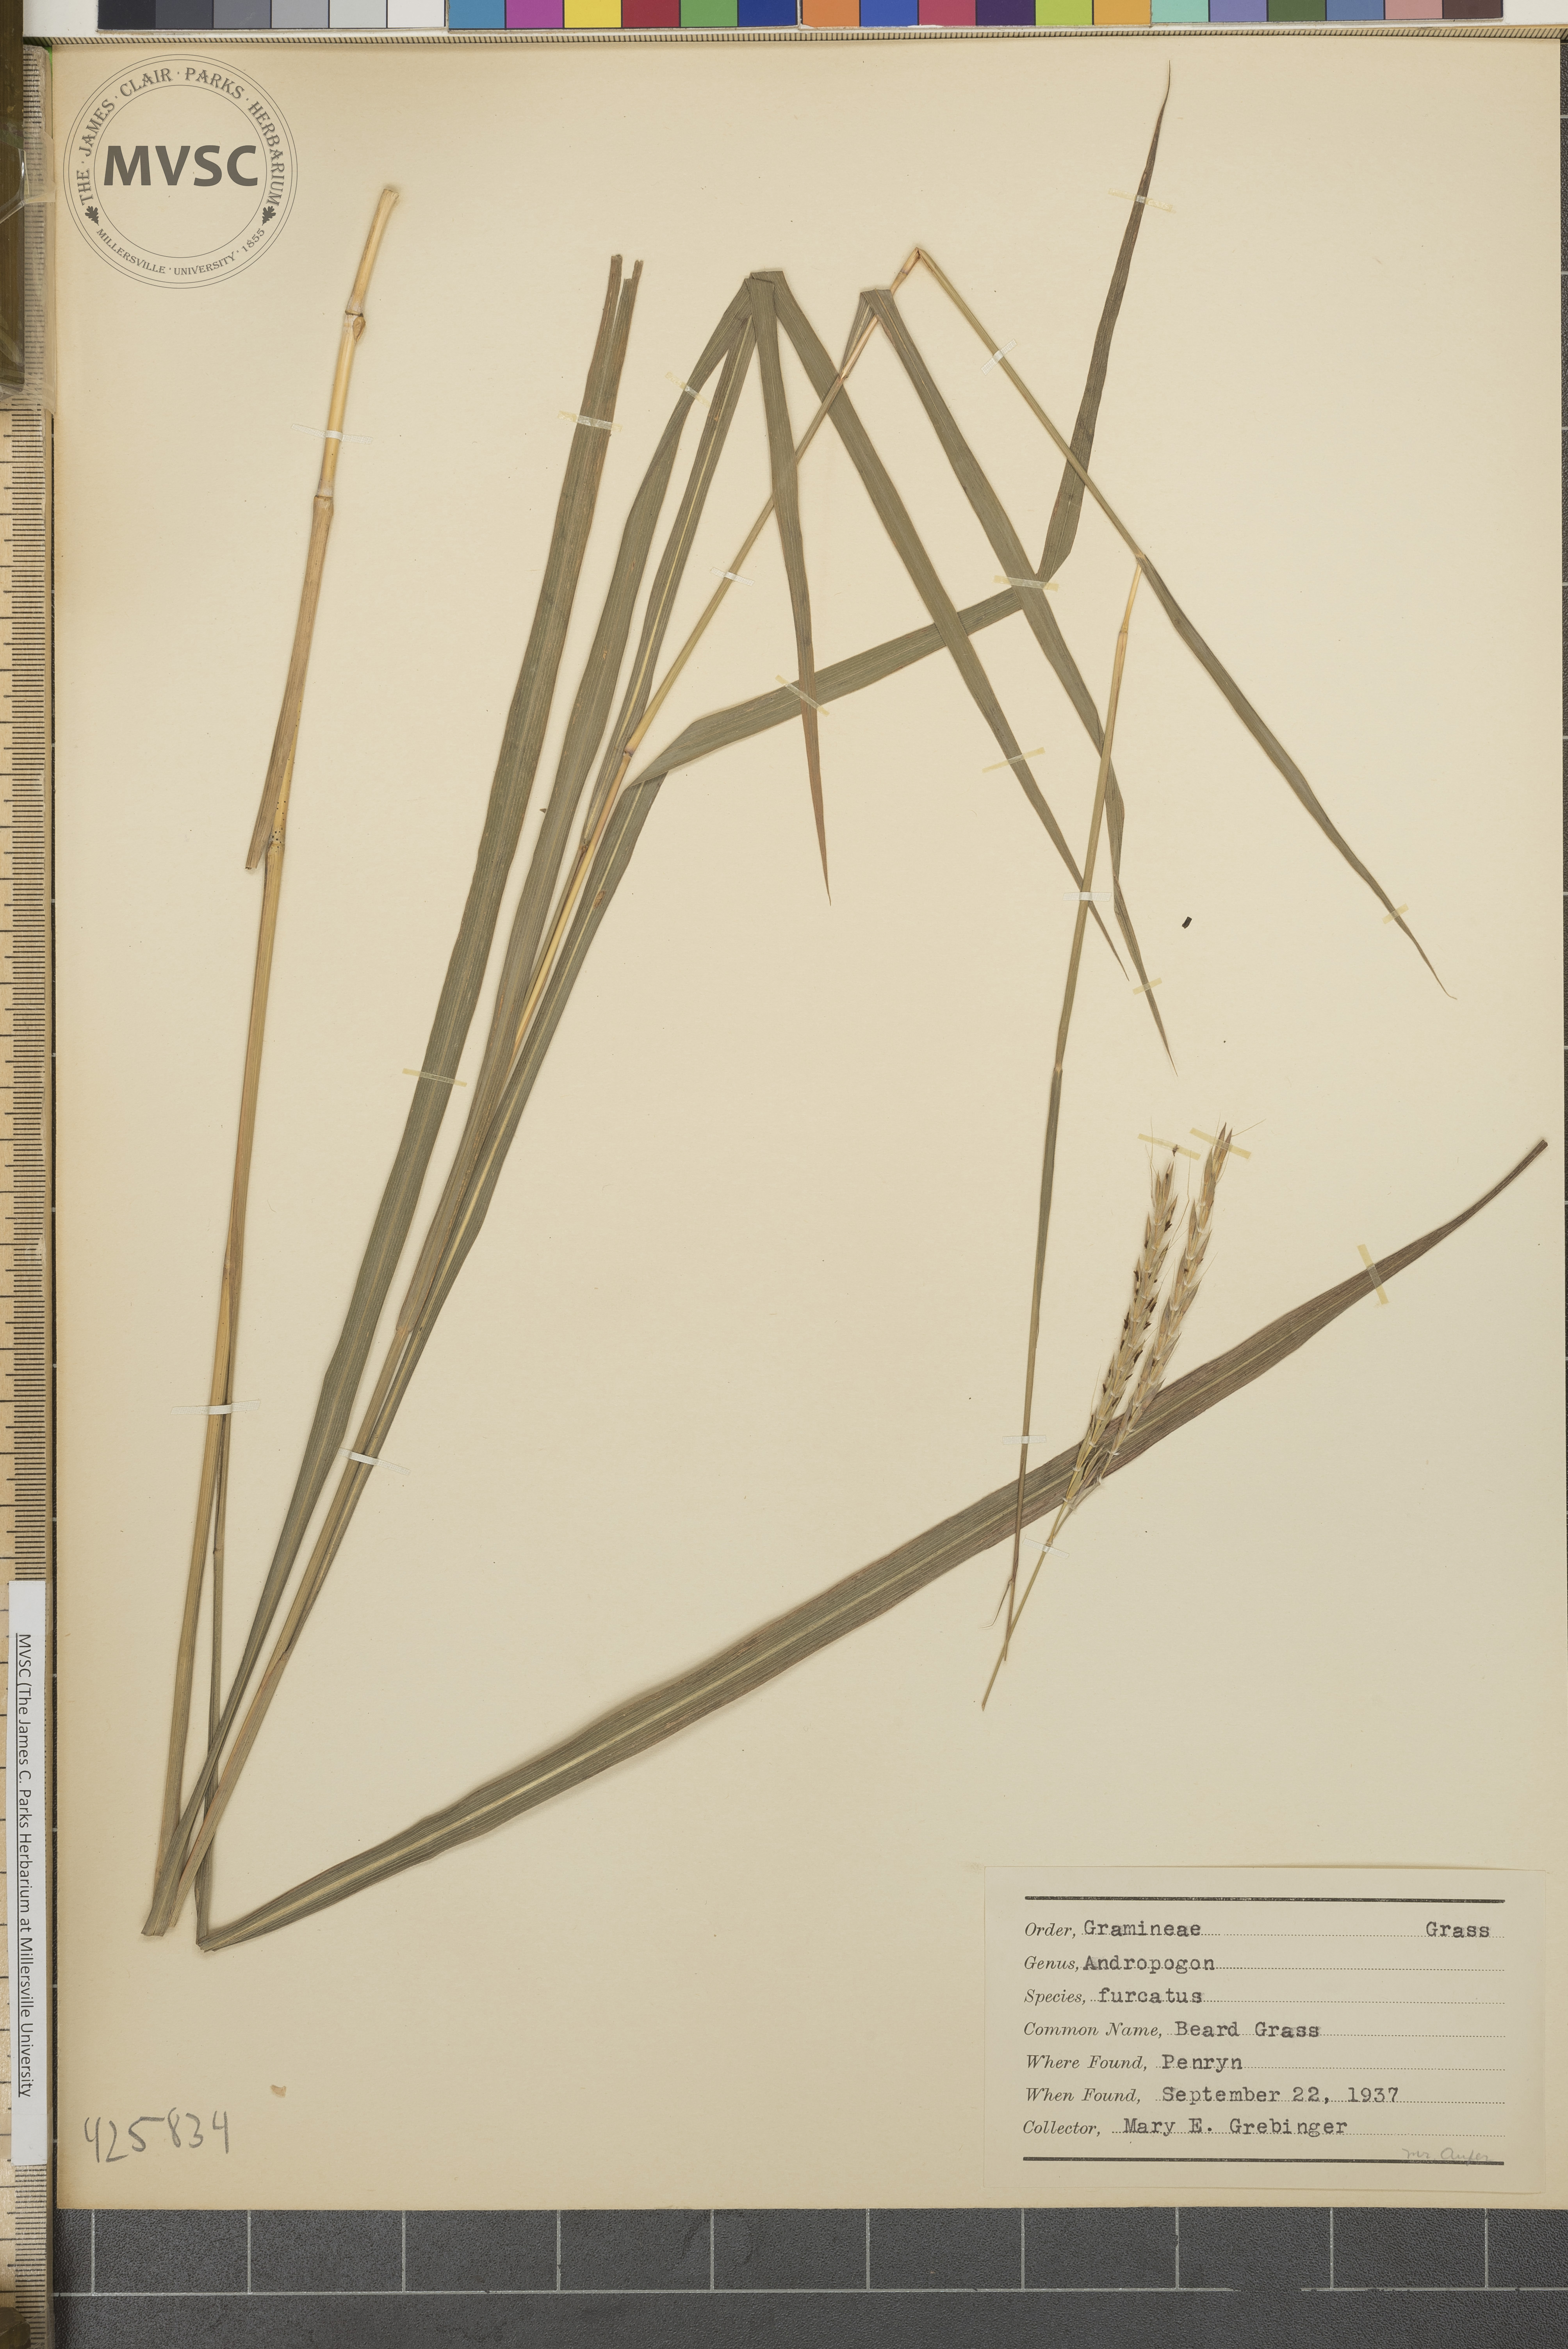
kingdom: Plantae
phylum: Tracheophyta
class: Liliopsida
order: Poales
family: Poaceae
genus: Andropogon
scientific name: Andropogon gerardi
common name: Beard grass
